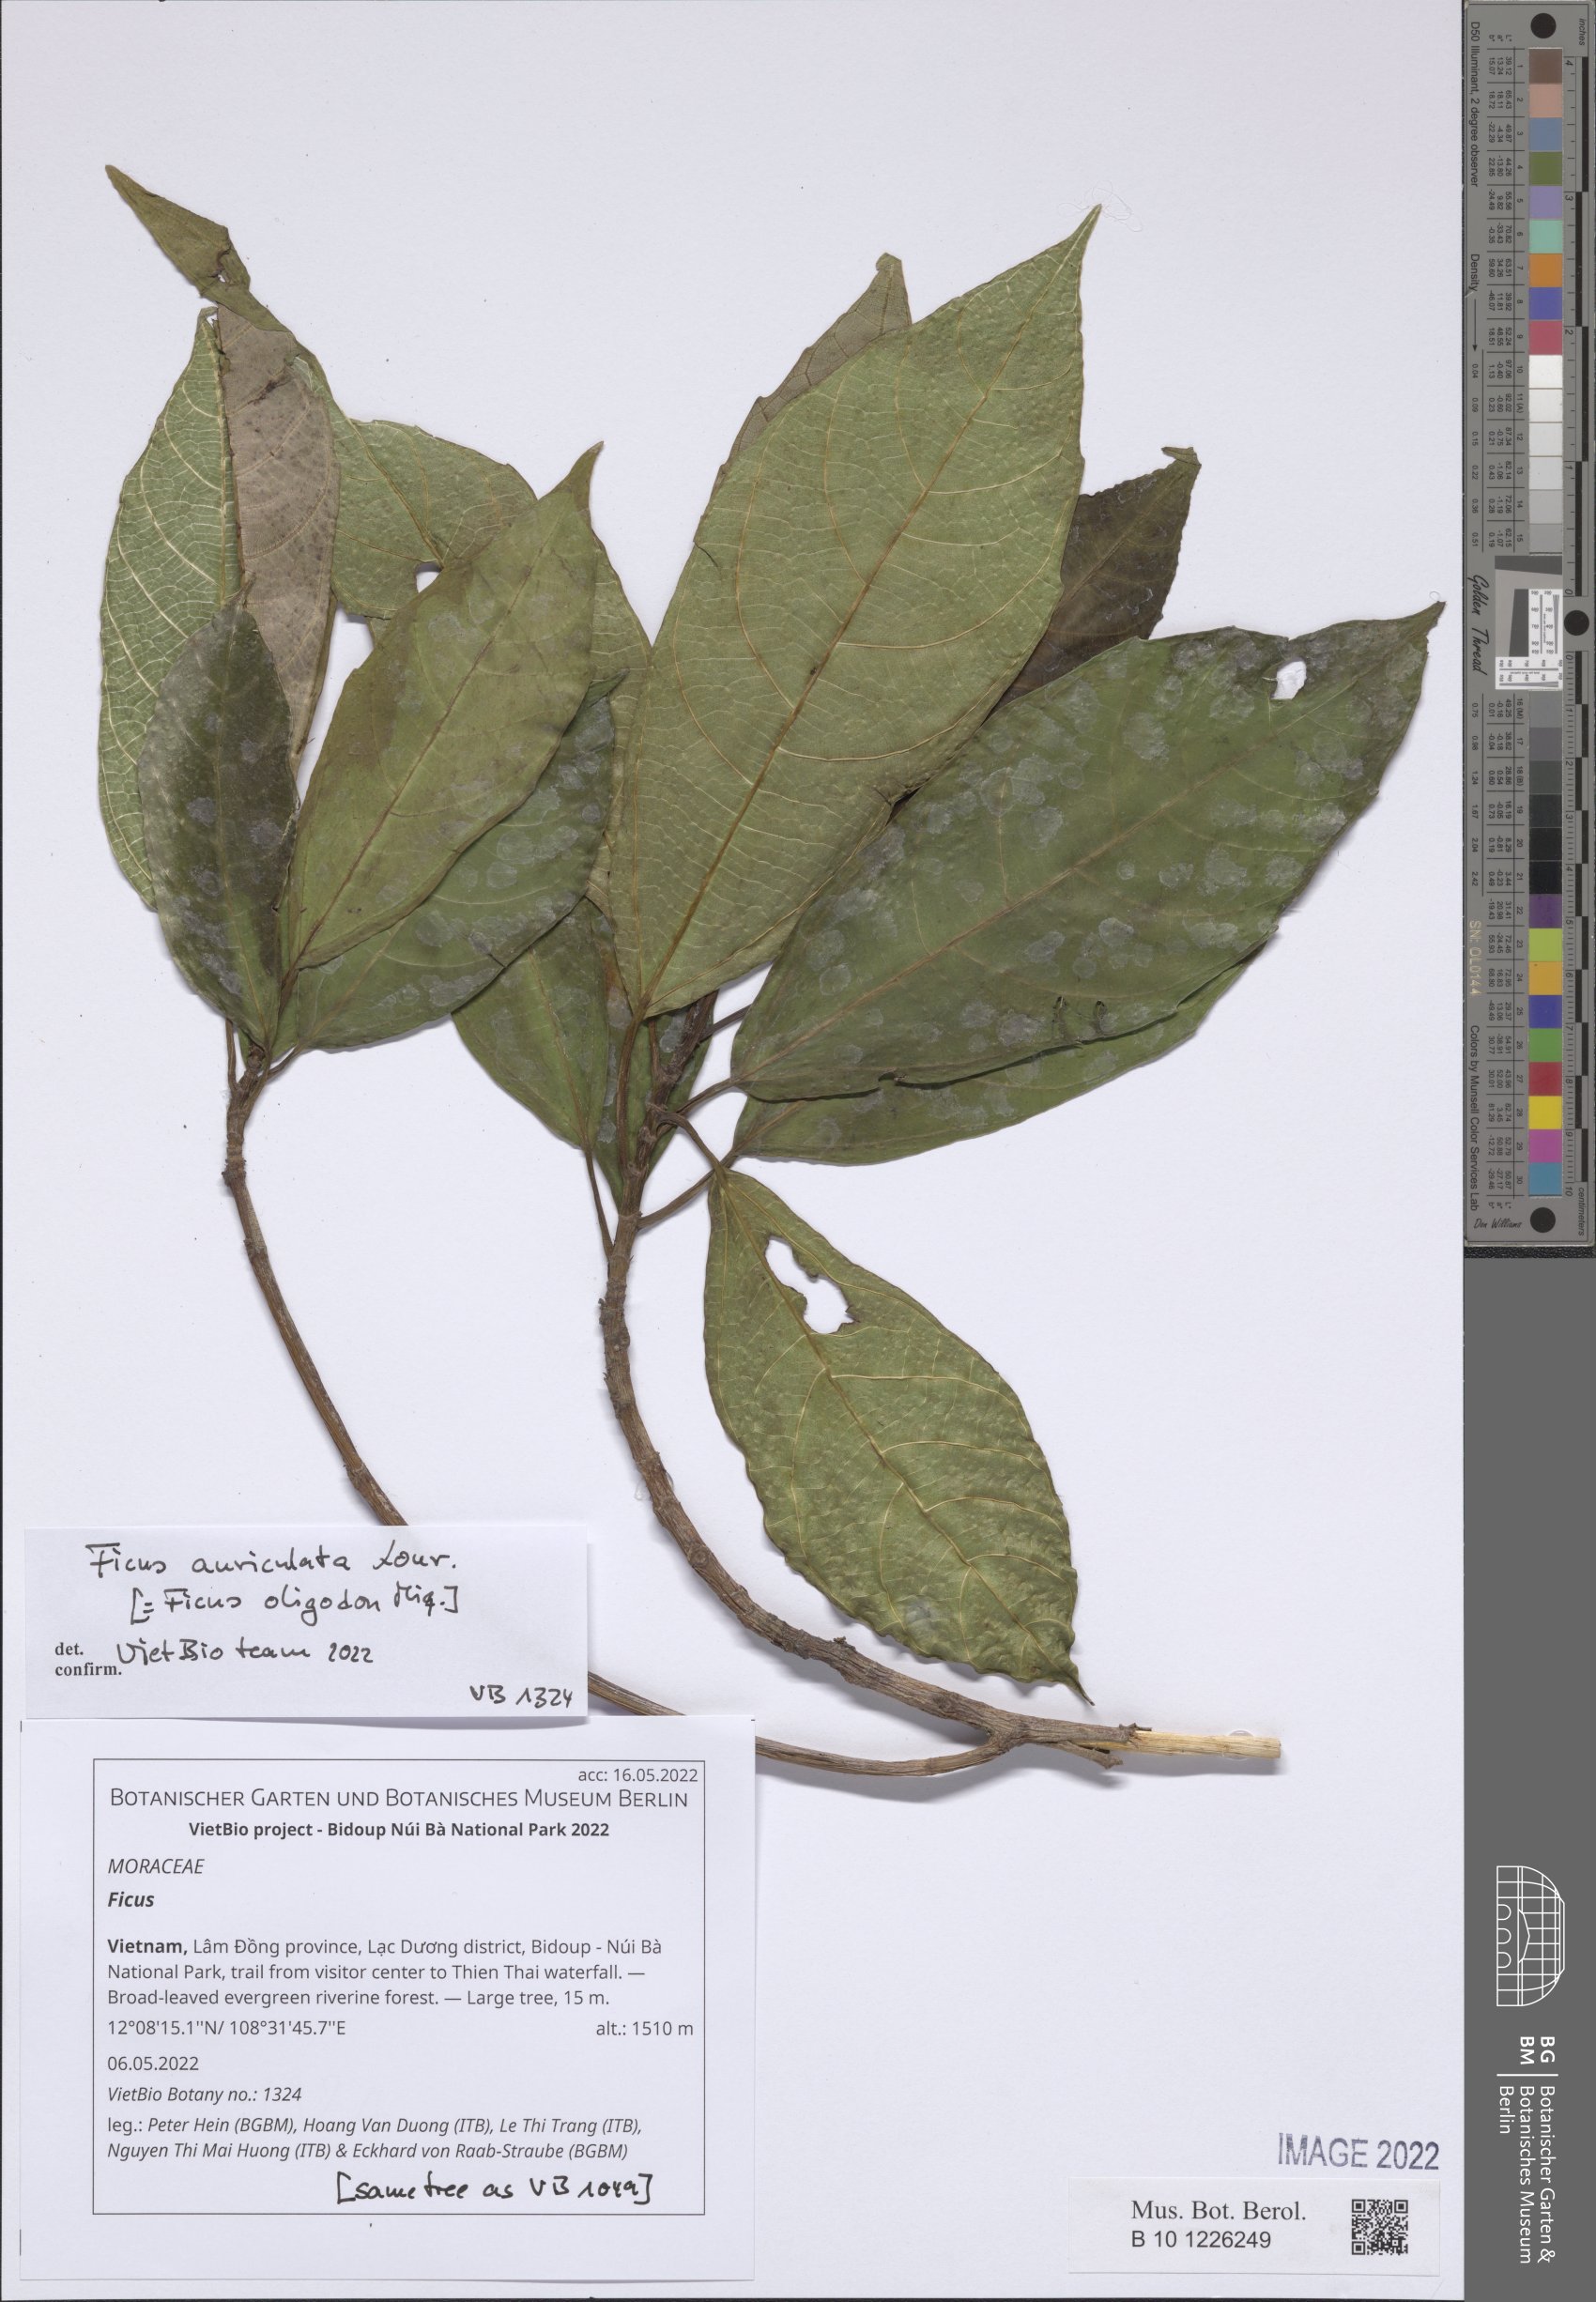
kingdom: Plantae
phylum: Tracheophyta
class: Magnoliopsida
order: Rosales
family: Moraceae
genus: Ficus
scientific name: Ficus
